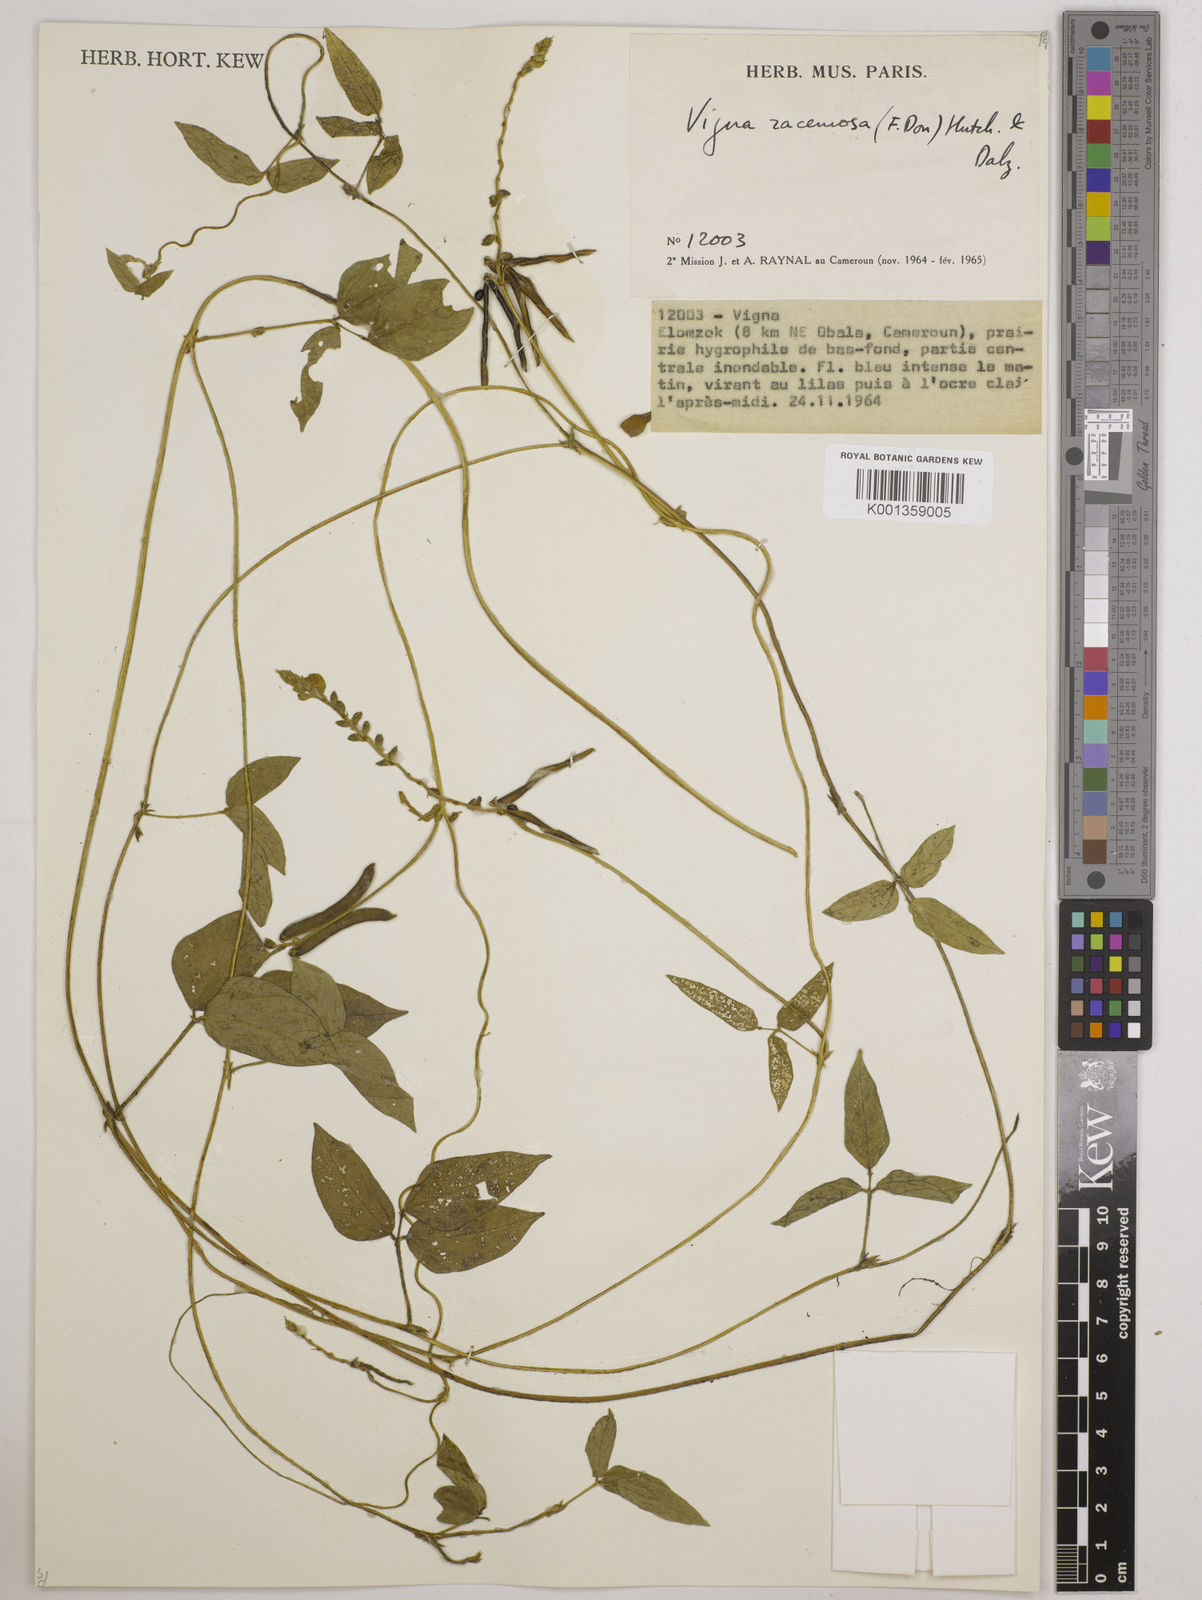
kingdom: Plantae
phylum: Tracheophyta
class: Magnoliopsida
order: Fabales
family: Fabaceae
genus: Vigna
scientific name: Vigna racemosa
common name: Beans not eaten
